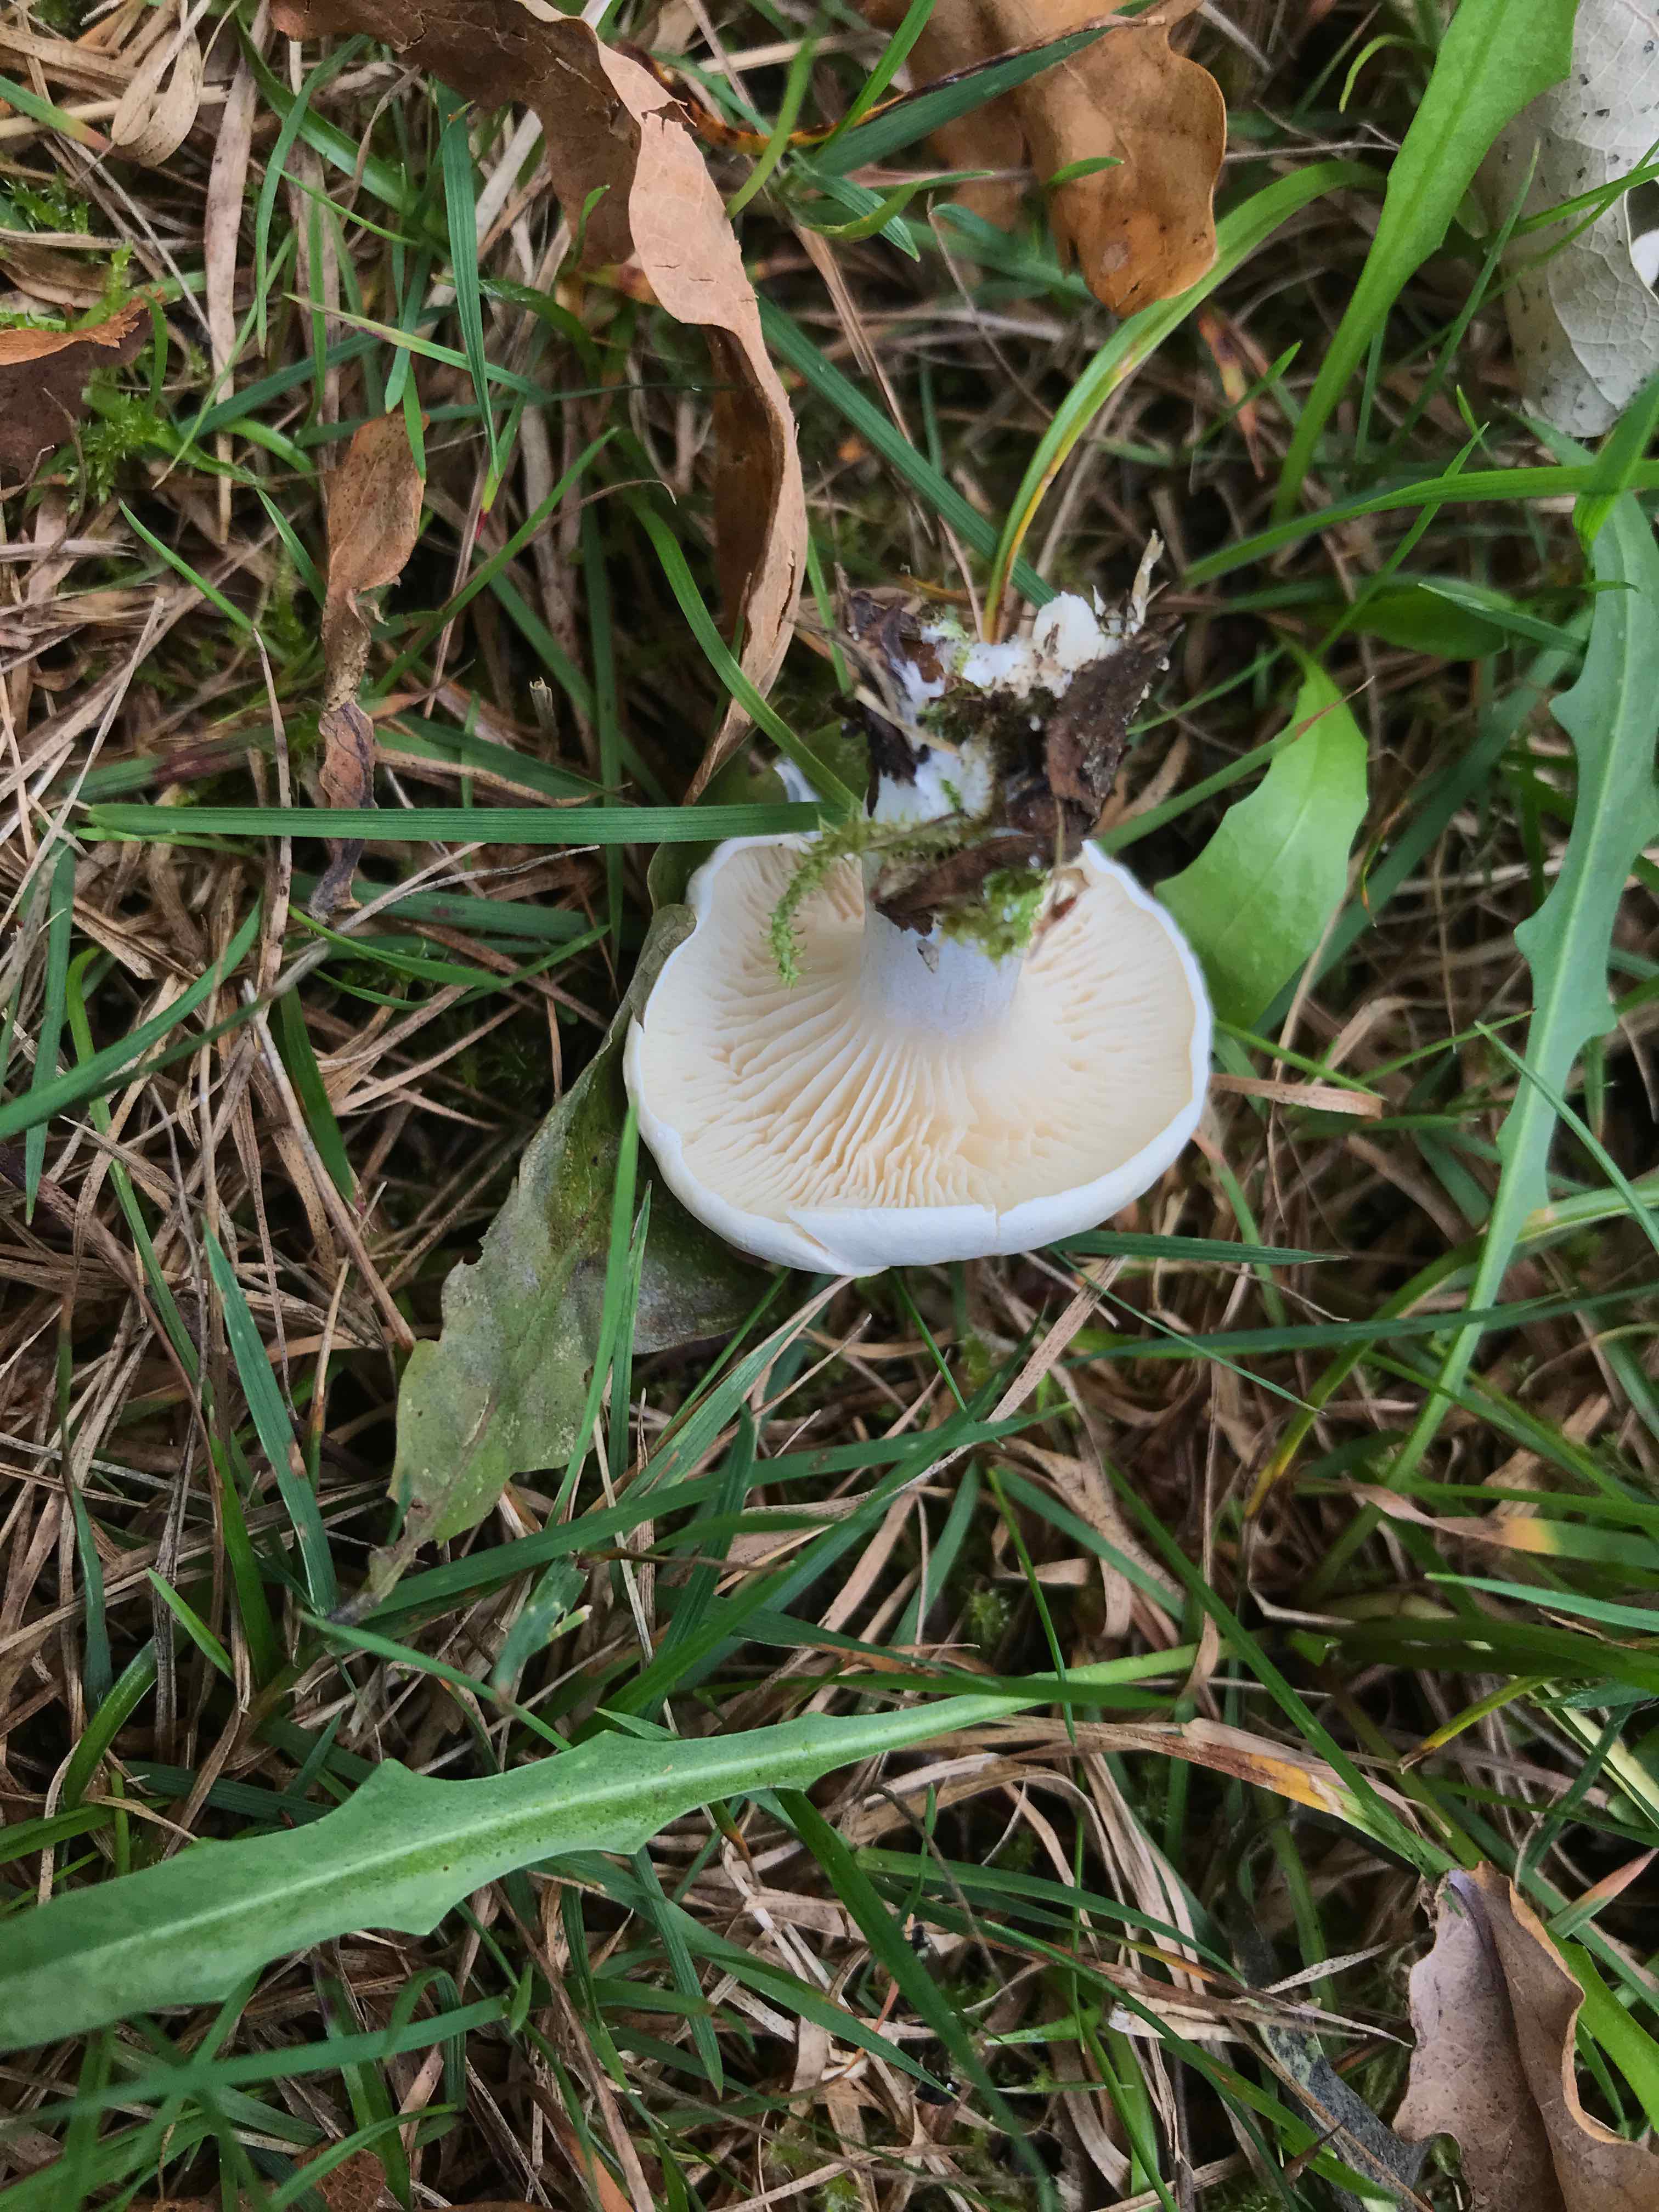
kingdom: Fungi
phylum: Basidiomycota
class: Agaricomycetes
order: Agaricales
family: Entolomataceae
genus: Clitopilus
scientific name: Clitopilus prunulus
